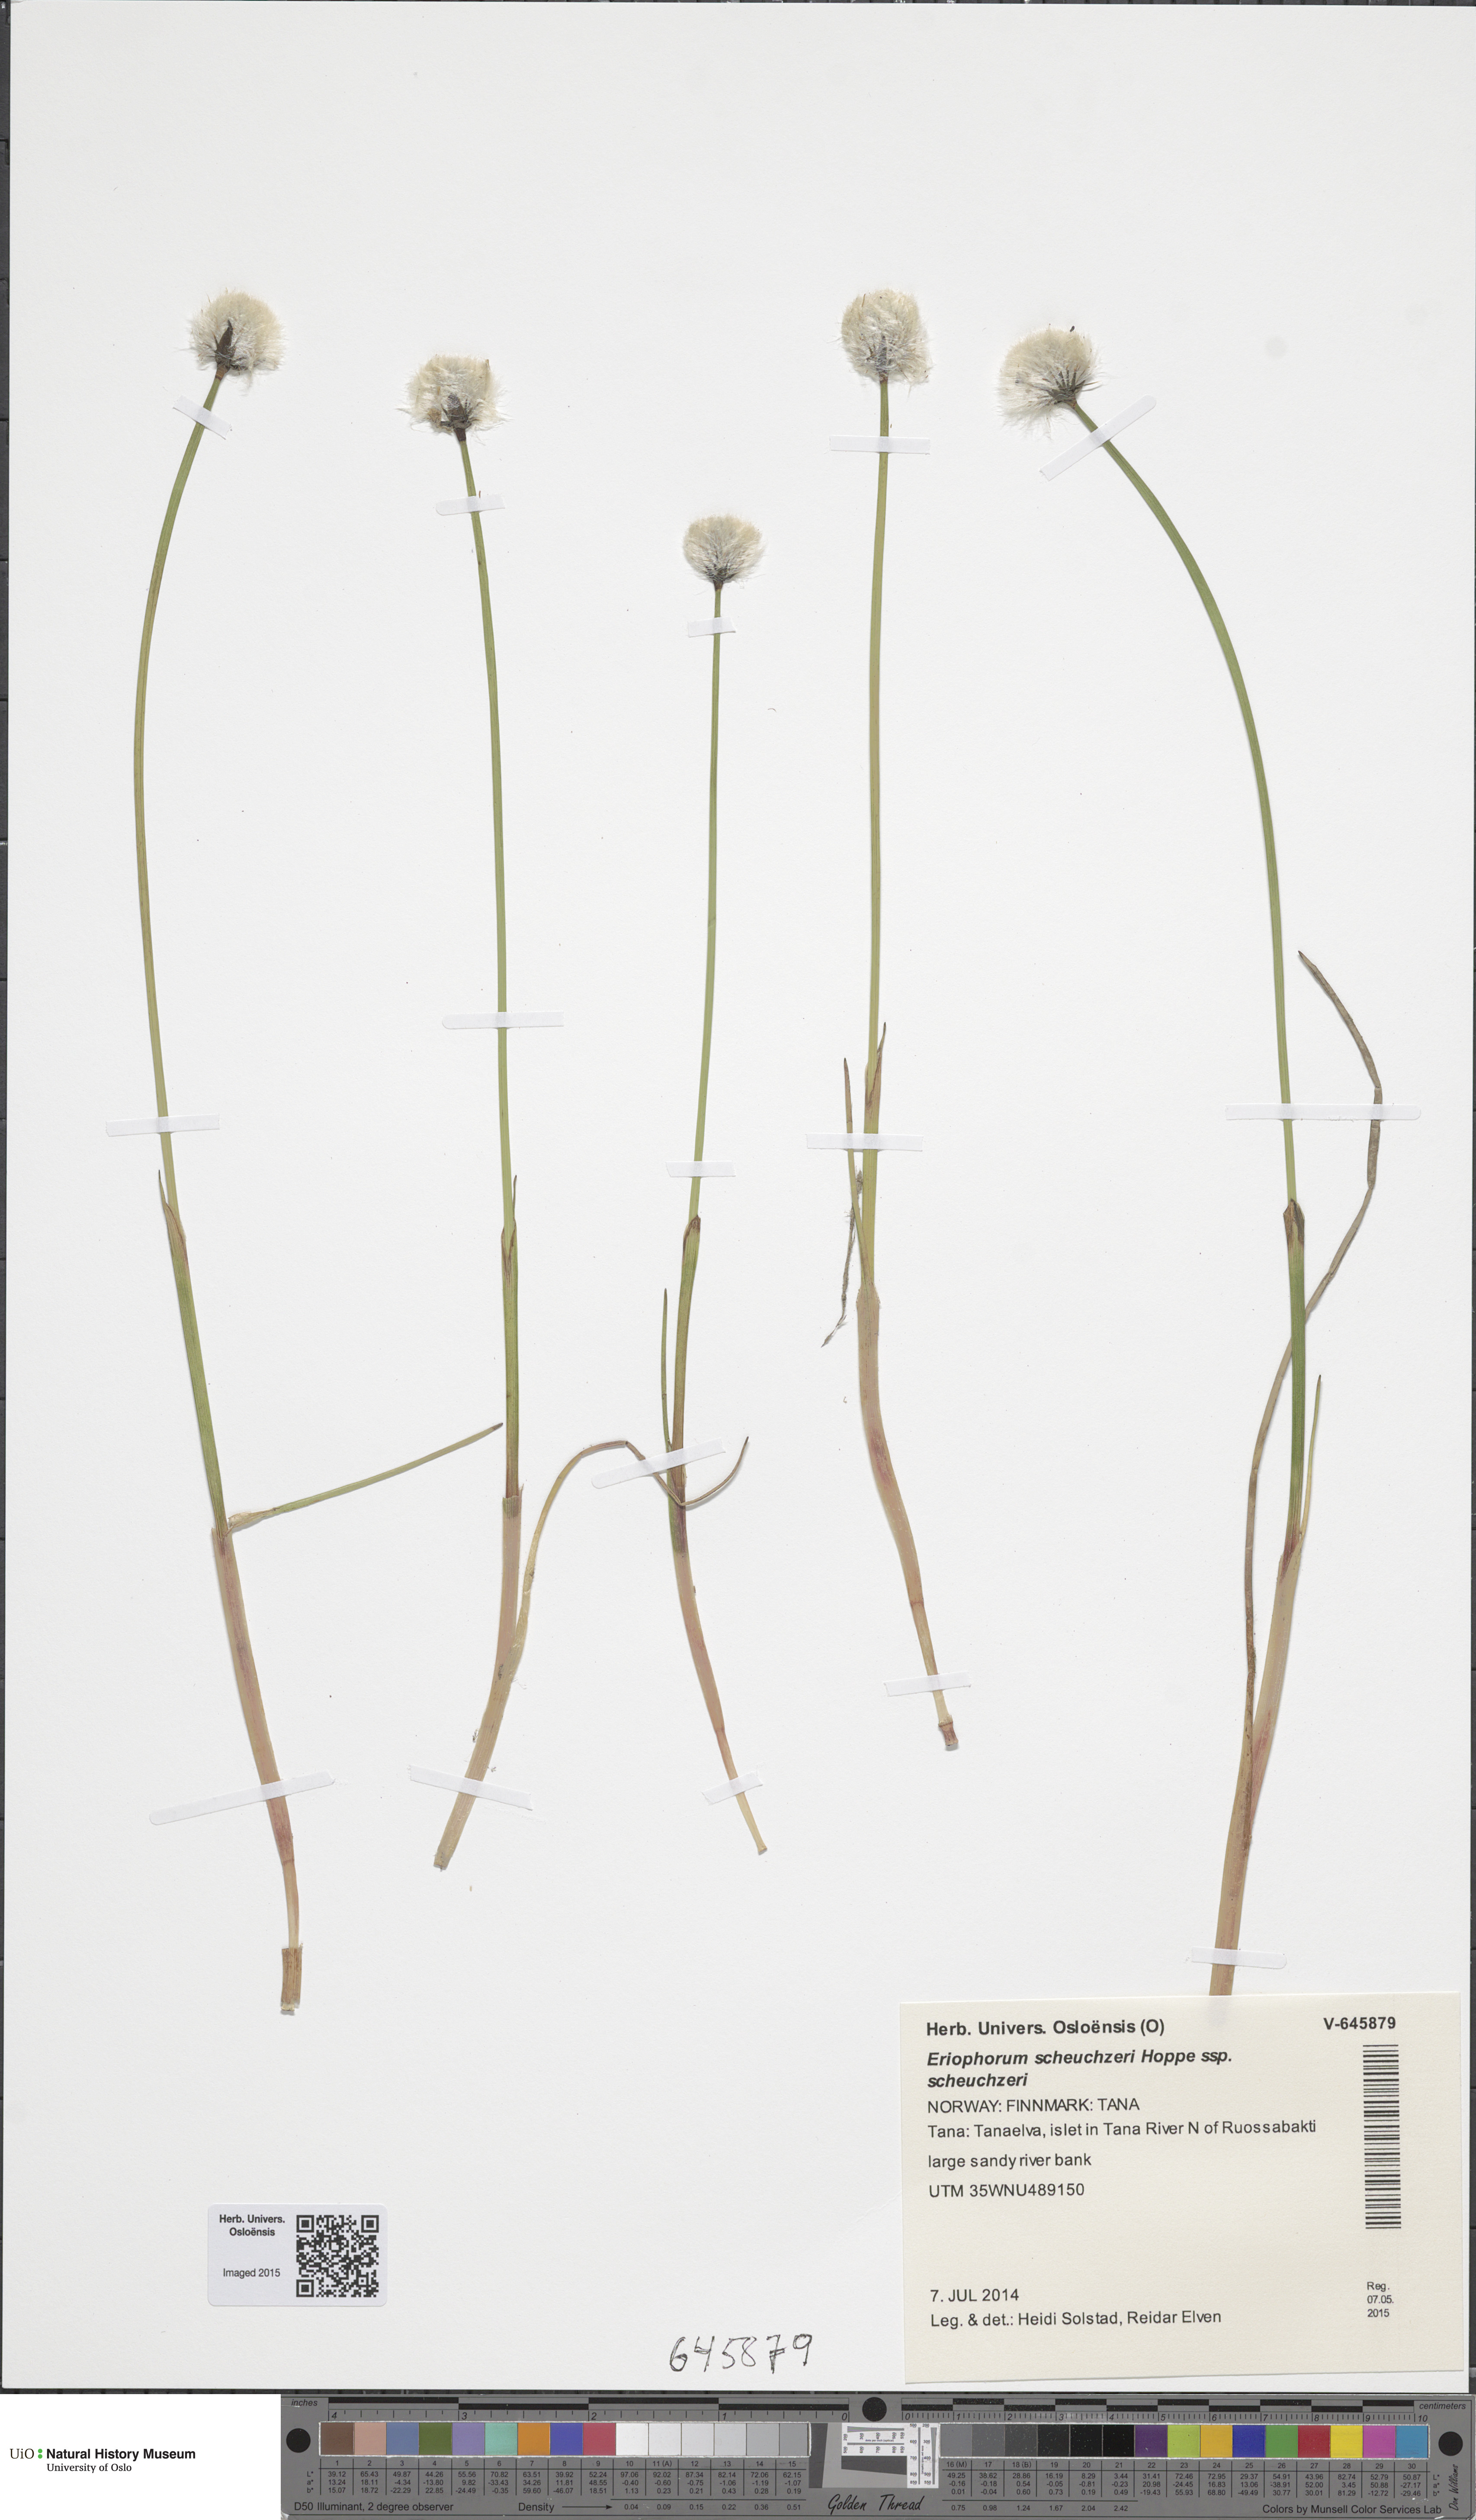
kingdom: Plantae
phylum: Tracheophyta
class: Liliopsida
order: Poales
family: Cyperaceae
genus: Eriophorum
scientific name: Eriophorum scheuchzeri
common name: Scheuchzer's cottongrass
